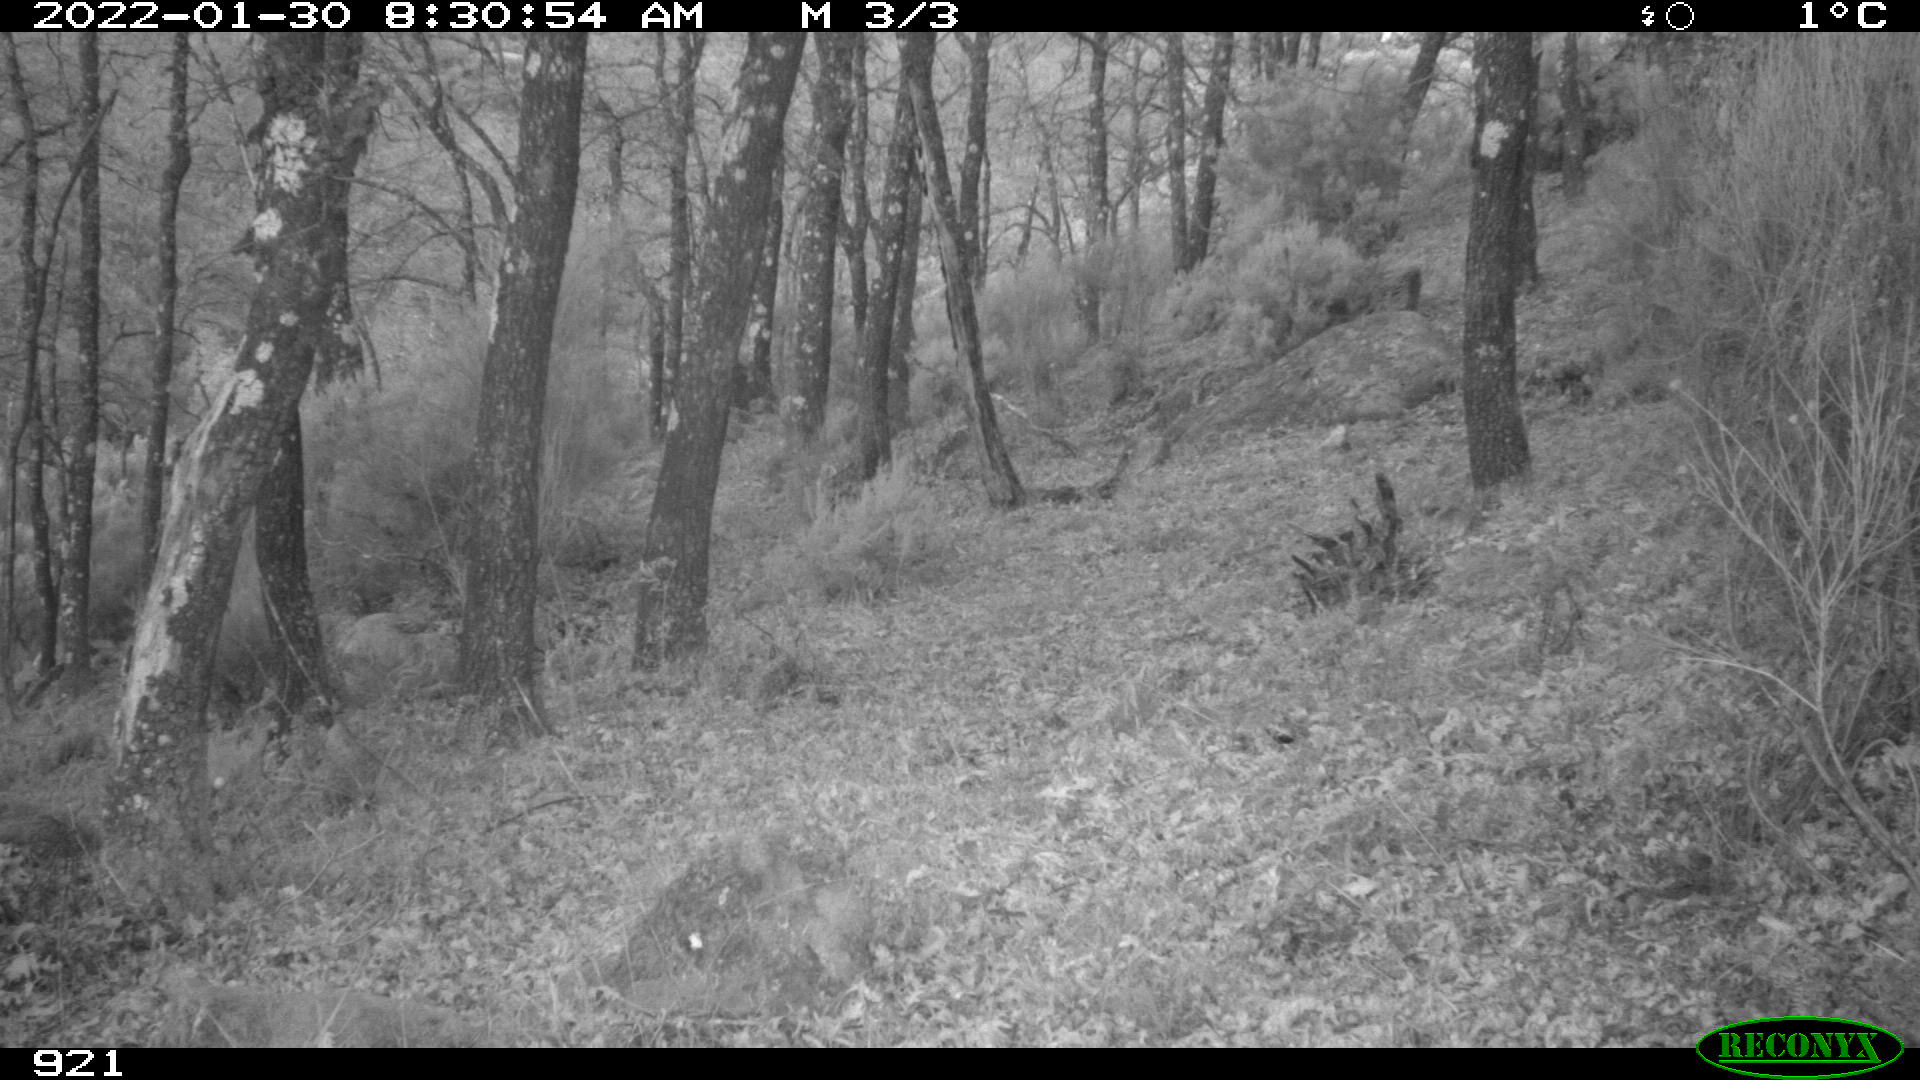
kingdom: Animalia
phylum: Chordata
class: Mammalia
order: Artiodactyla
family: Cervidae
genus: Capreolus
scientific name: Capreolus capreolus
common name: Western roe deer
